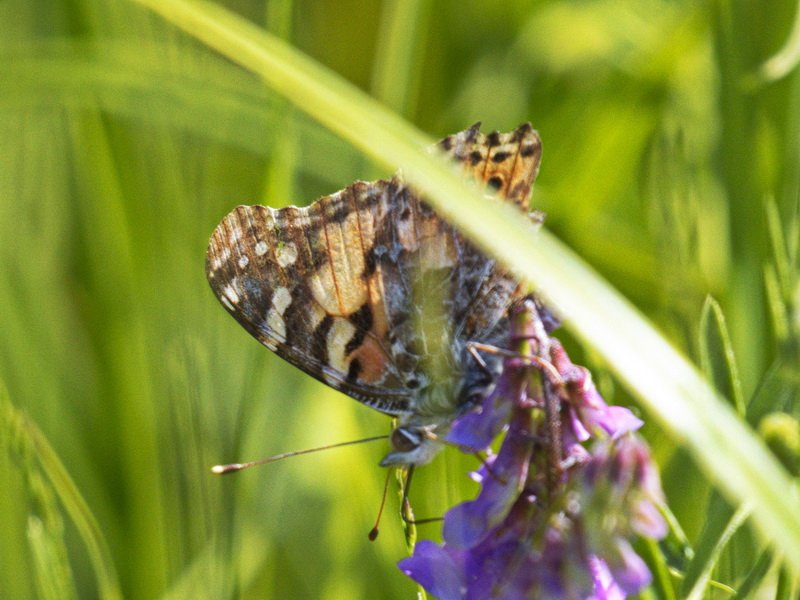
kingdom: Animalia
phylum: Arthropoda
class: Insecta
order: Lepidoptera
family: Nymphalidae
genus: Vanessa
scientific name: Vanessa cardui
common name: Painted Lady
